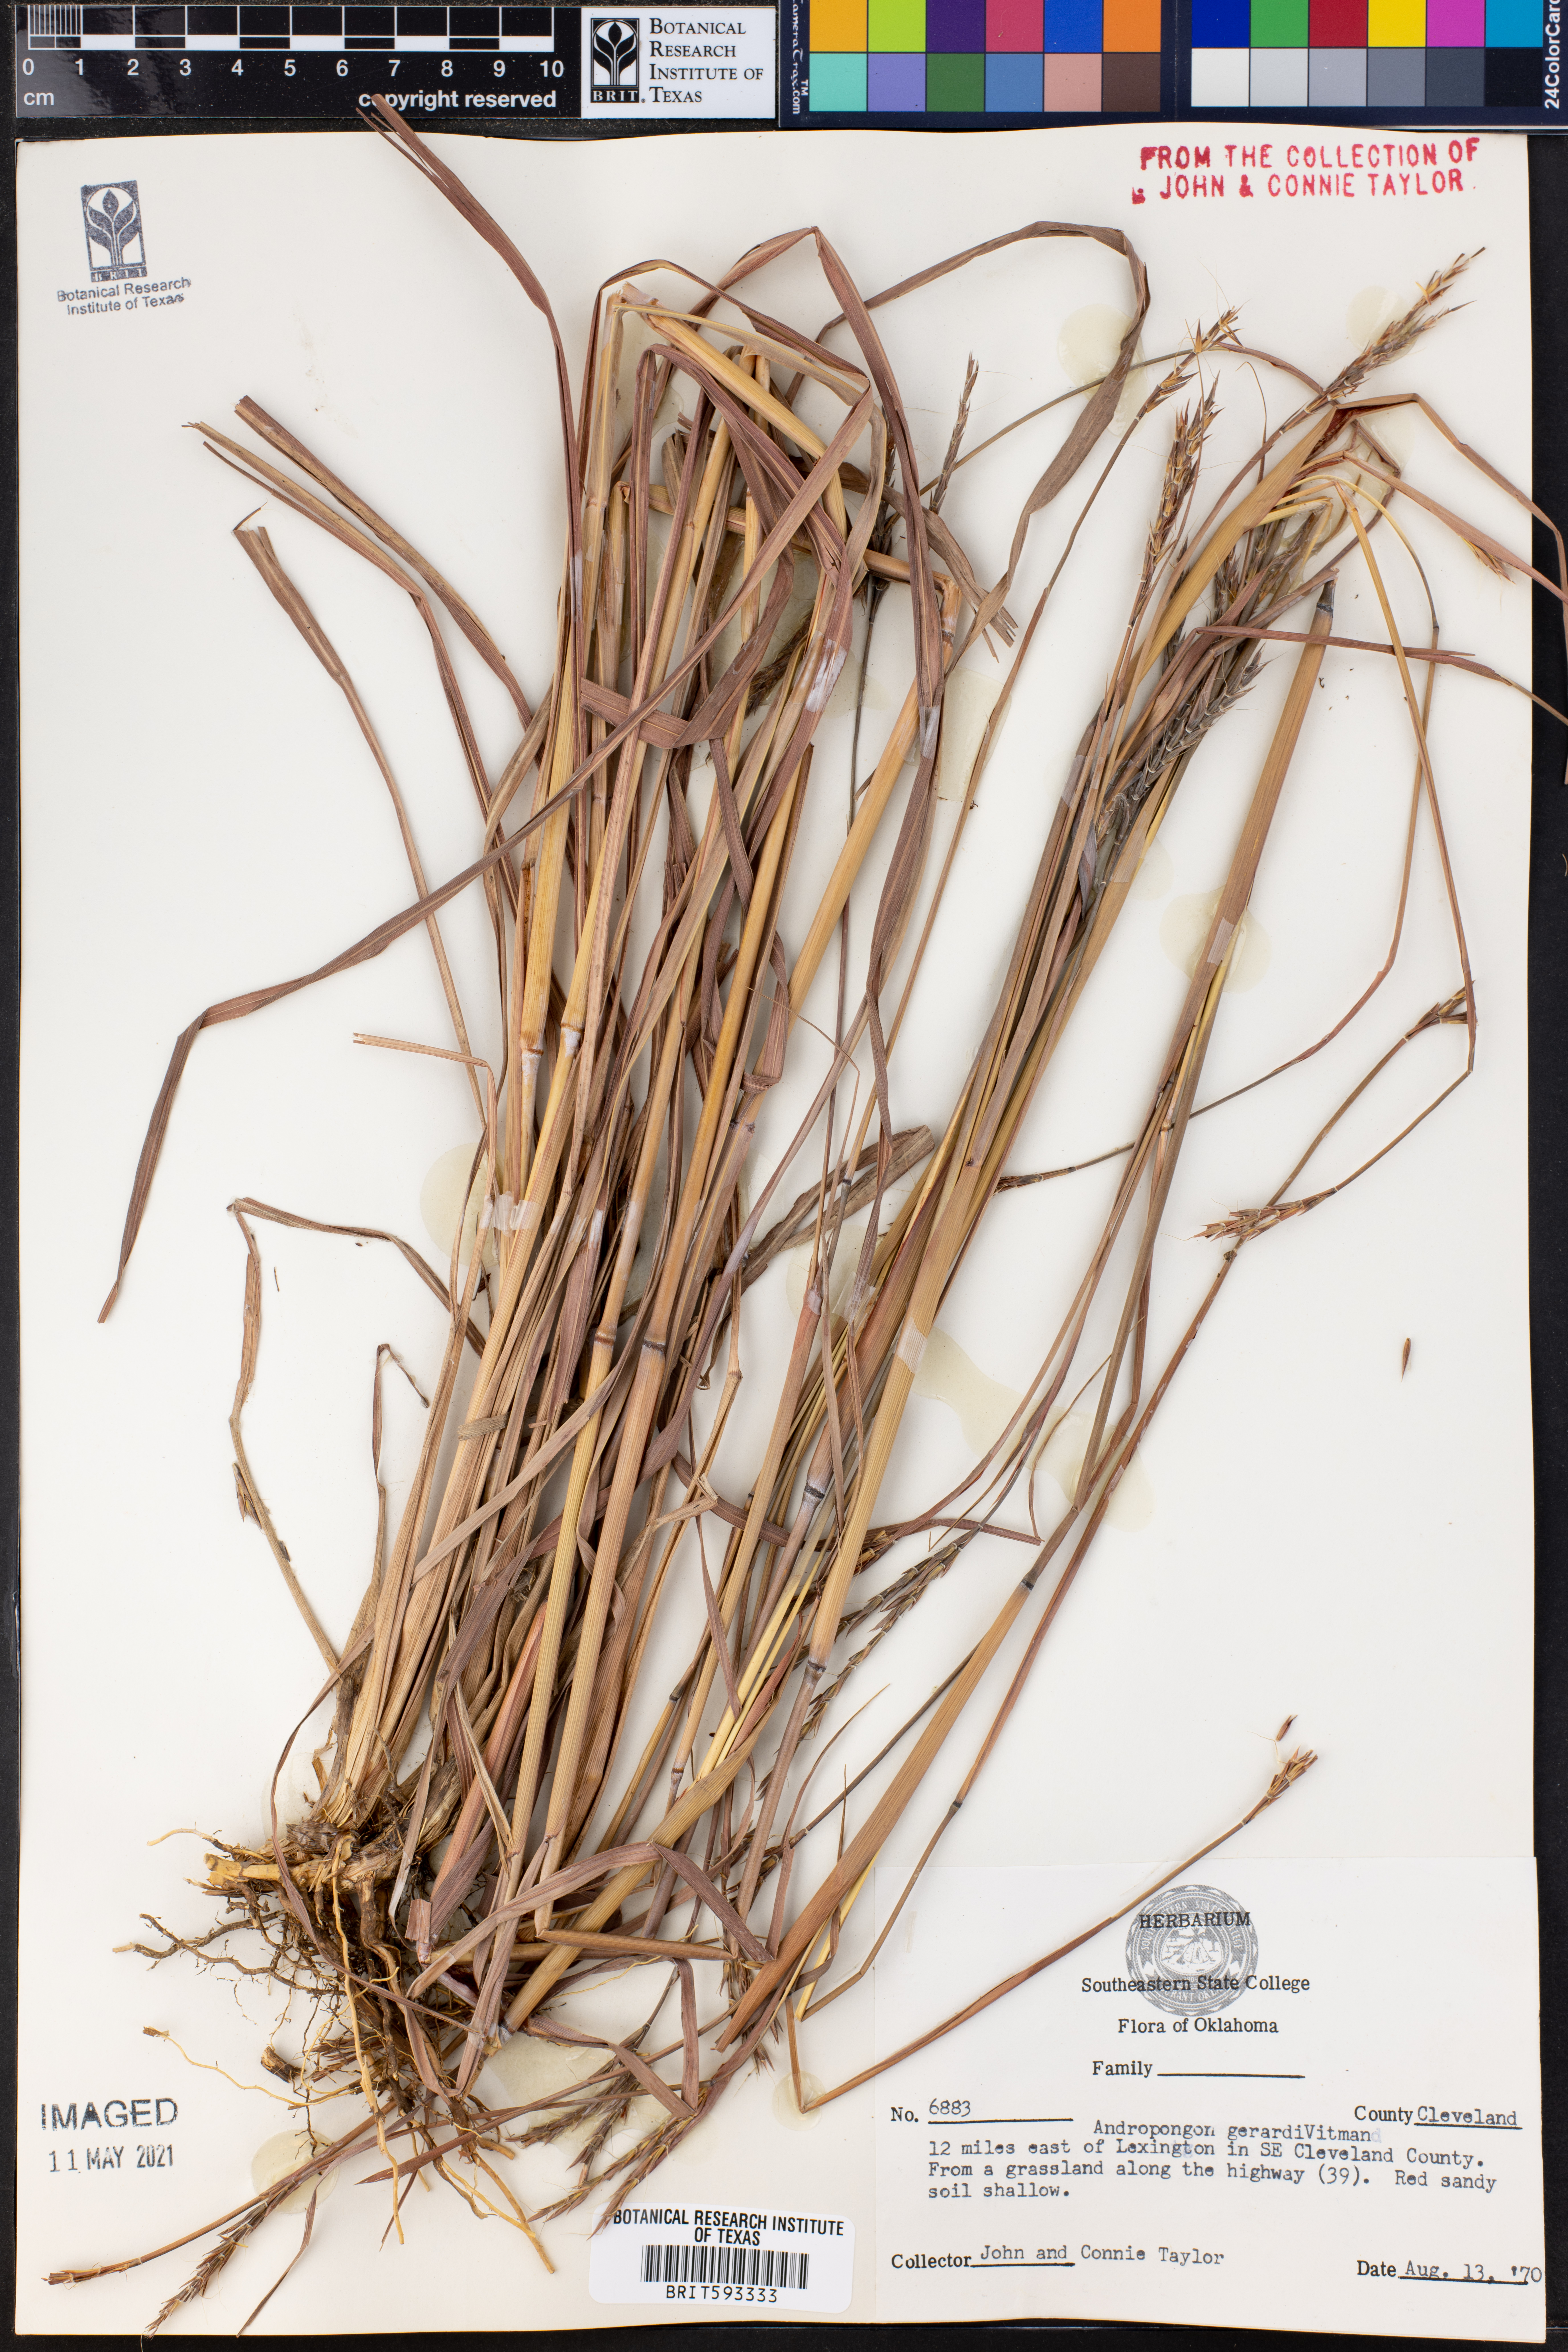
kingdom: Plantae
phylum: Tracheophyta
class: Liliopsida
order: Poales
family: Poaceae
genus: Andropogon
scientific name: Andropogon gerardi
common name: Big bluestem
